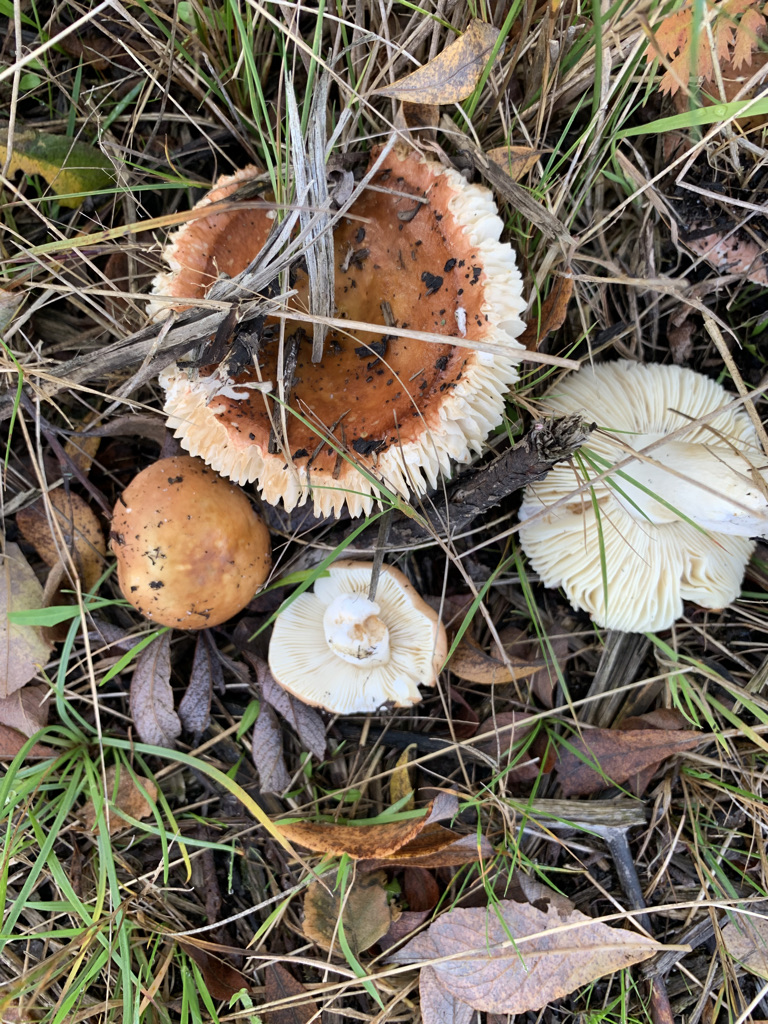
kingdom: Fungi
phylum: Basidiomycota
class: Agaricomycetes
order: Russulales
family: Russulaceae
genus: Russula
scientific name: Russula
